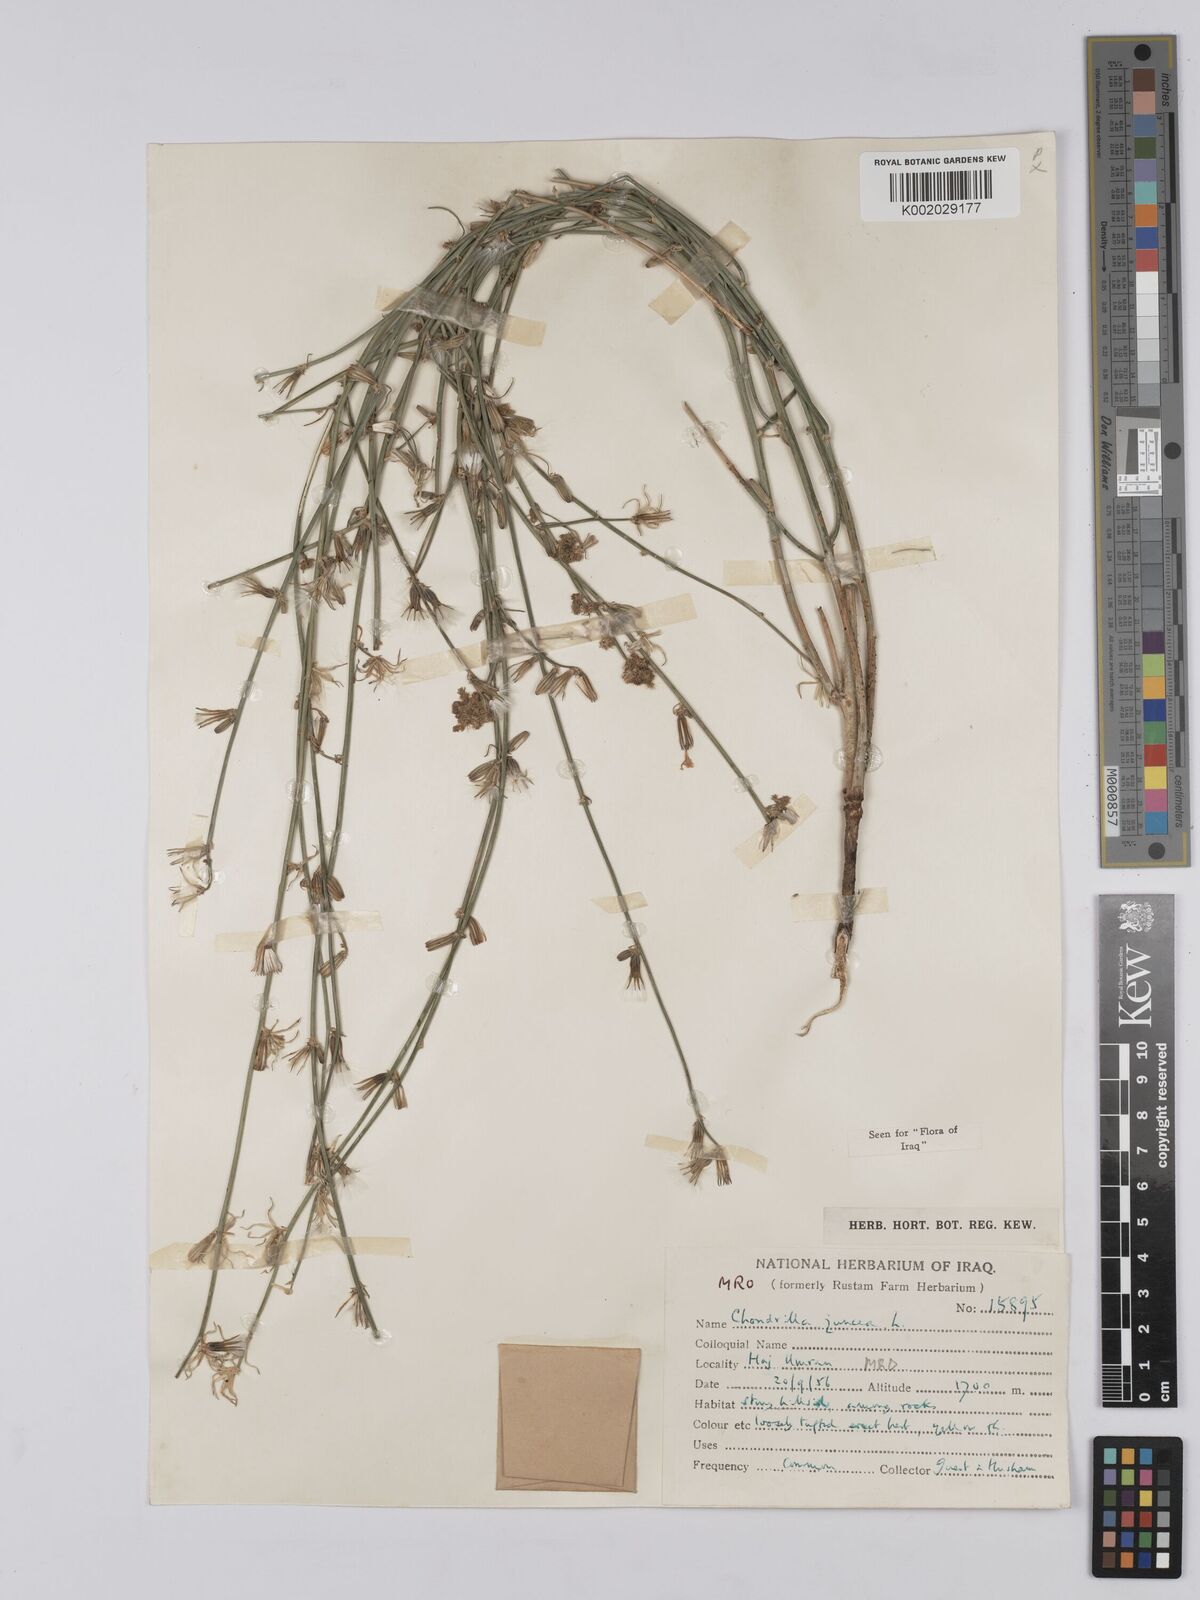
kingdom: Plantae
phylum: Tracheophyta
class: Magnoliopsida
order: Asterales
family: Asteraceae
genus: Chondrilla
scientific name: Chondrilla juncea
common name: Skeleton weed
